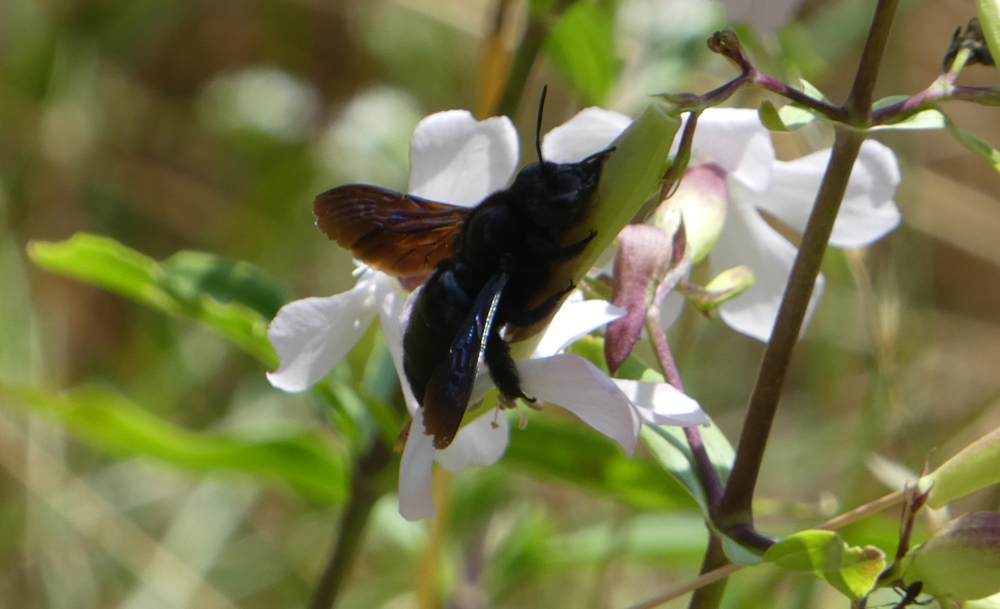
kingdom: Animalia
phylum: Arthropoda
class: Insecta
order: Hymenoptera
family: Apidae
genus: Xylocopa
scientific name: Xylocopa violacea
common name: Violet carpenter bee
